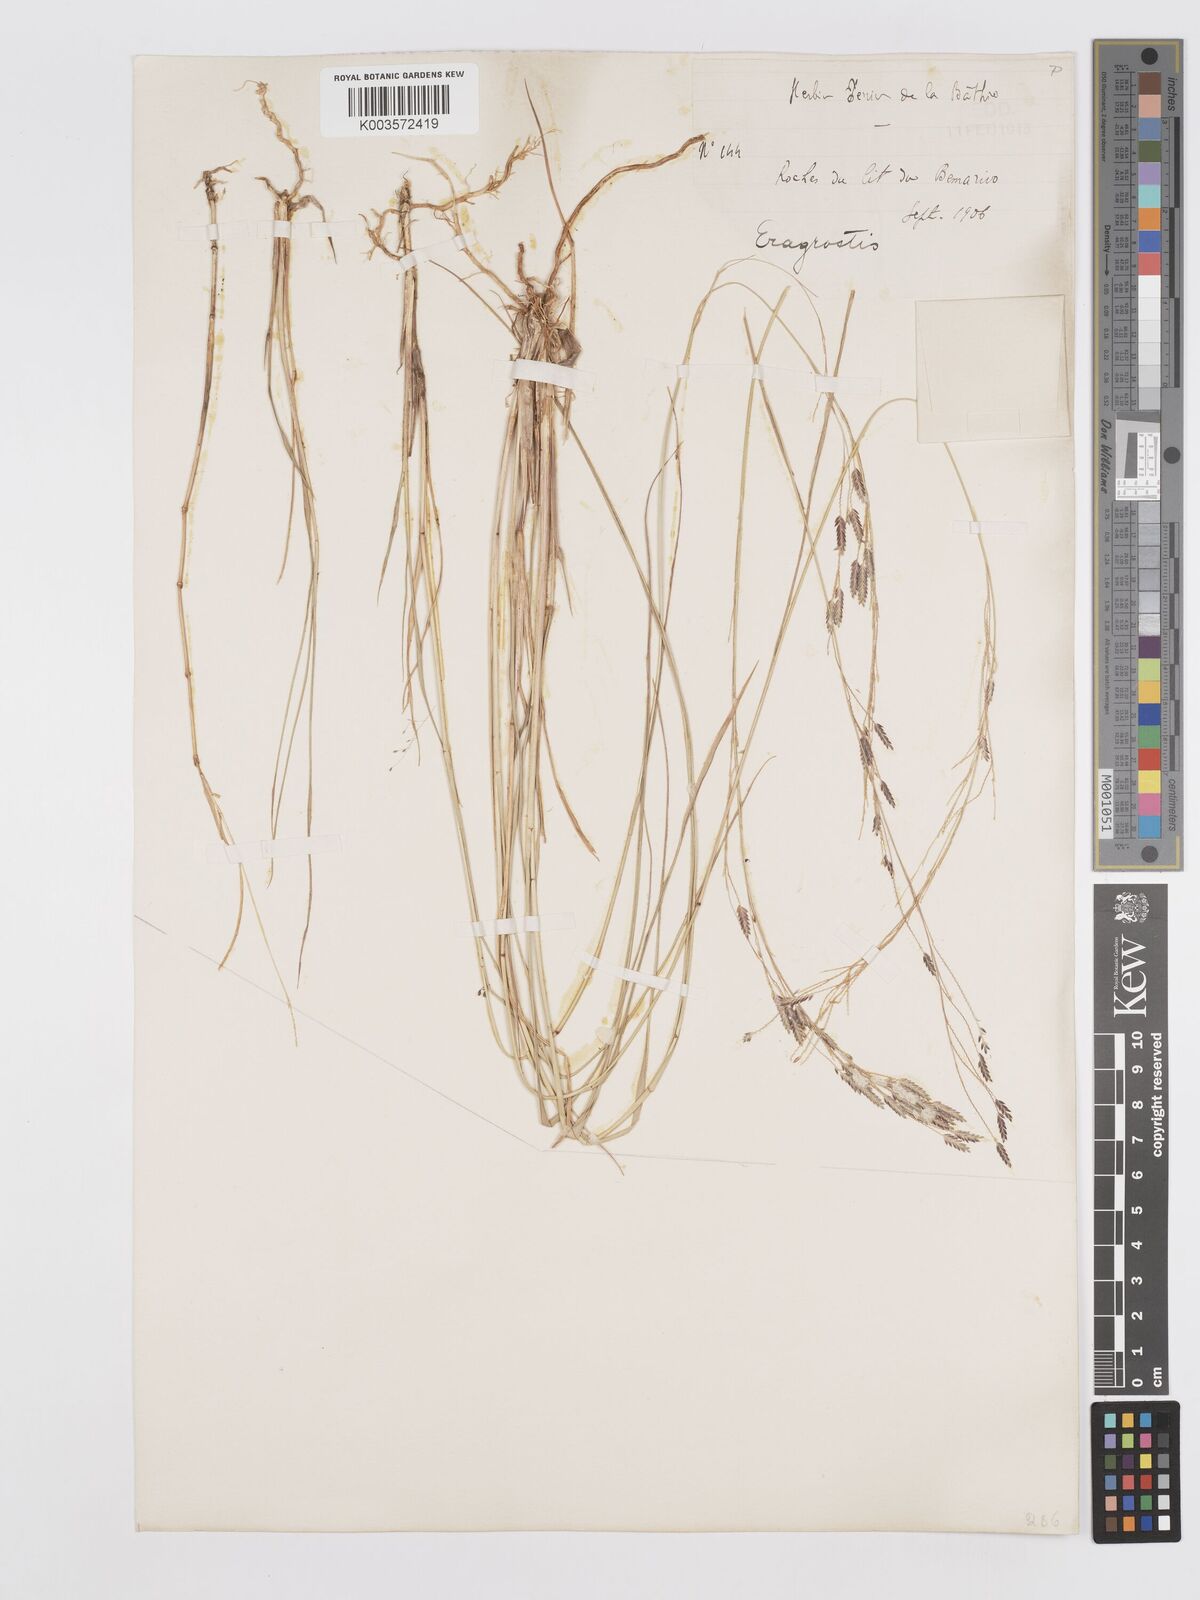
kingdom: Plantae
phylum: Tracheophyta
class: Liliopsida
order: Poales
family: Poaceae
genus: Eragrostis
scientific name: Eragrostis papposa
